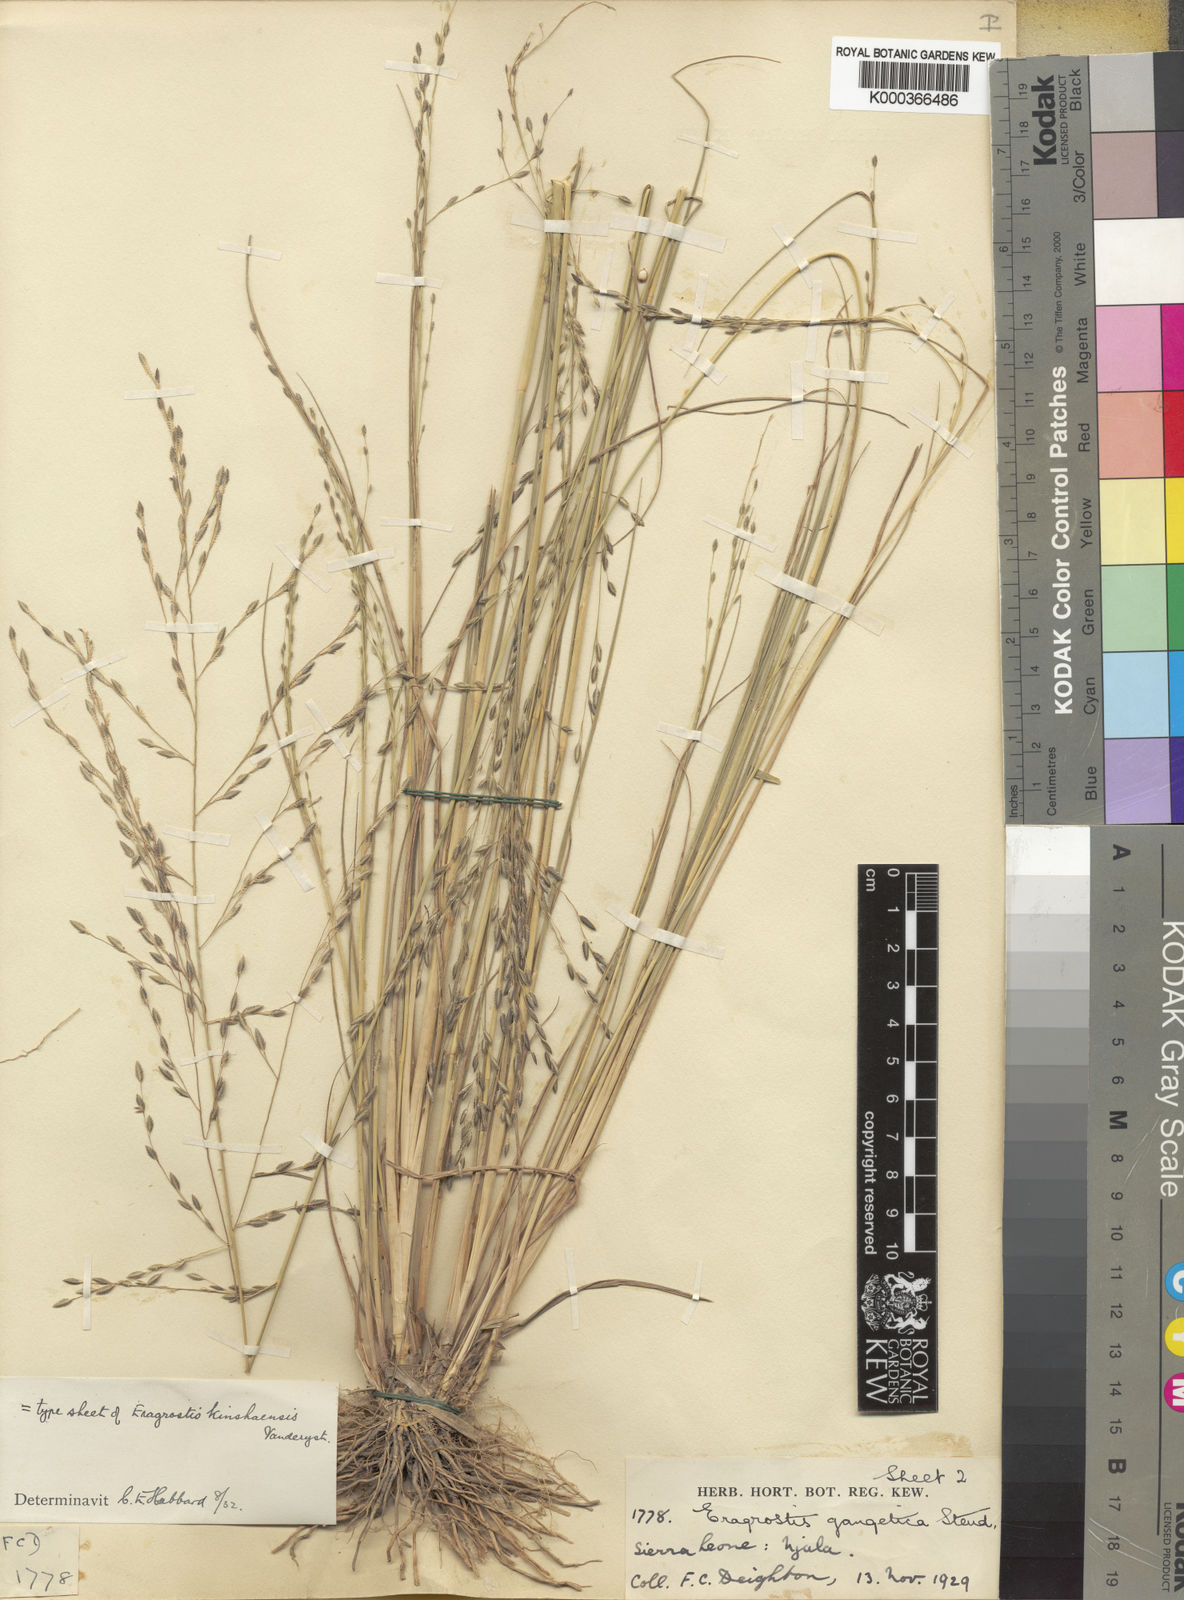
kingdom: Plantae
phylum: Tracheophyta
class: Liliopsida
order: Poales
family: Poaceae
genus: Eragrostis
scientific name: Eragrostis squamata
